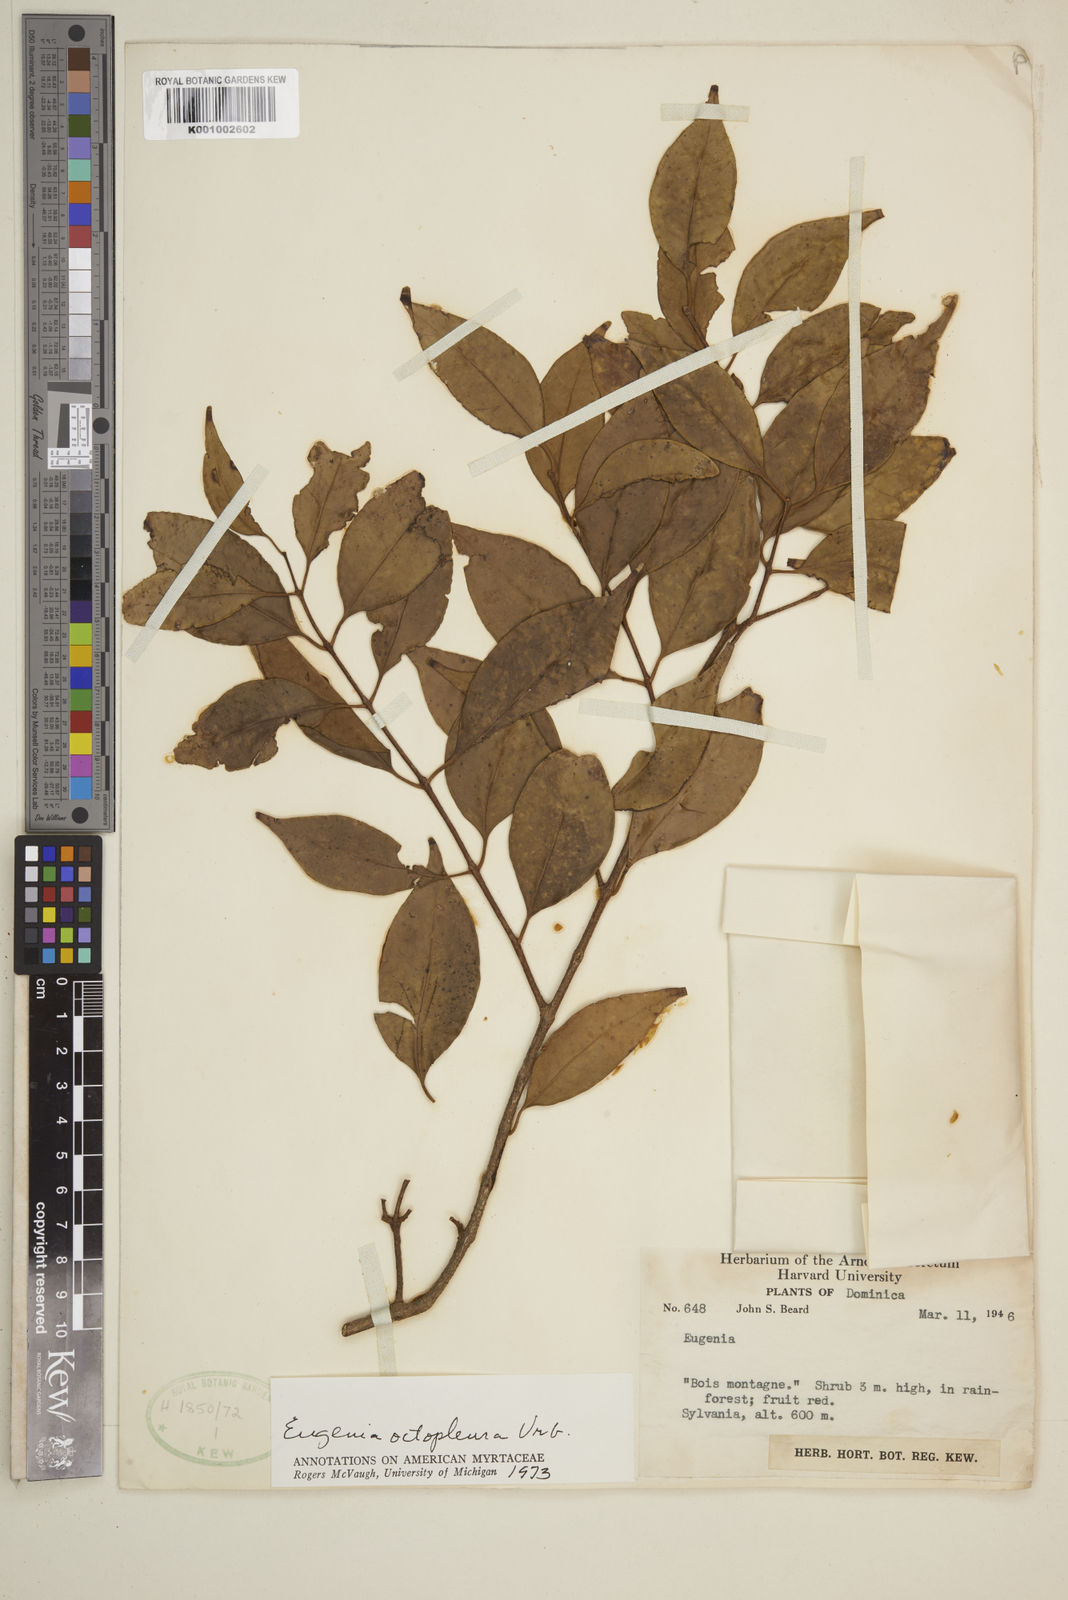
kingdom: Plantae
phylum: Tracheophyta
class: Magnoliopsida
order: Myrtales
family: Myrtaceae
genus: Eugenia
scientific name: Eugenia octopleura
